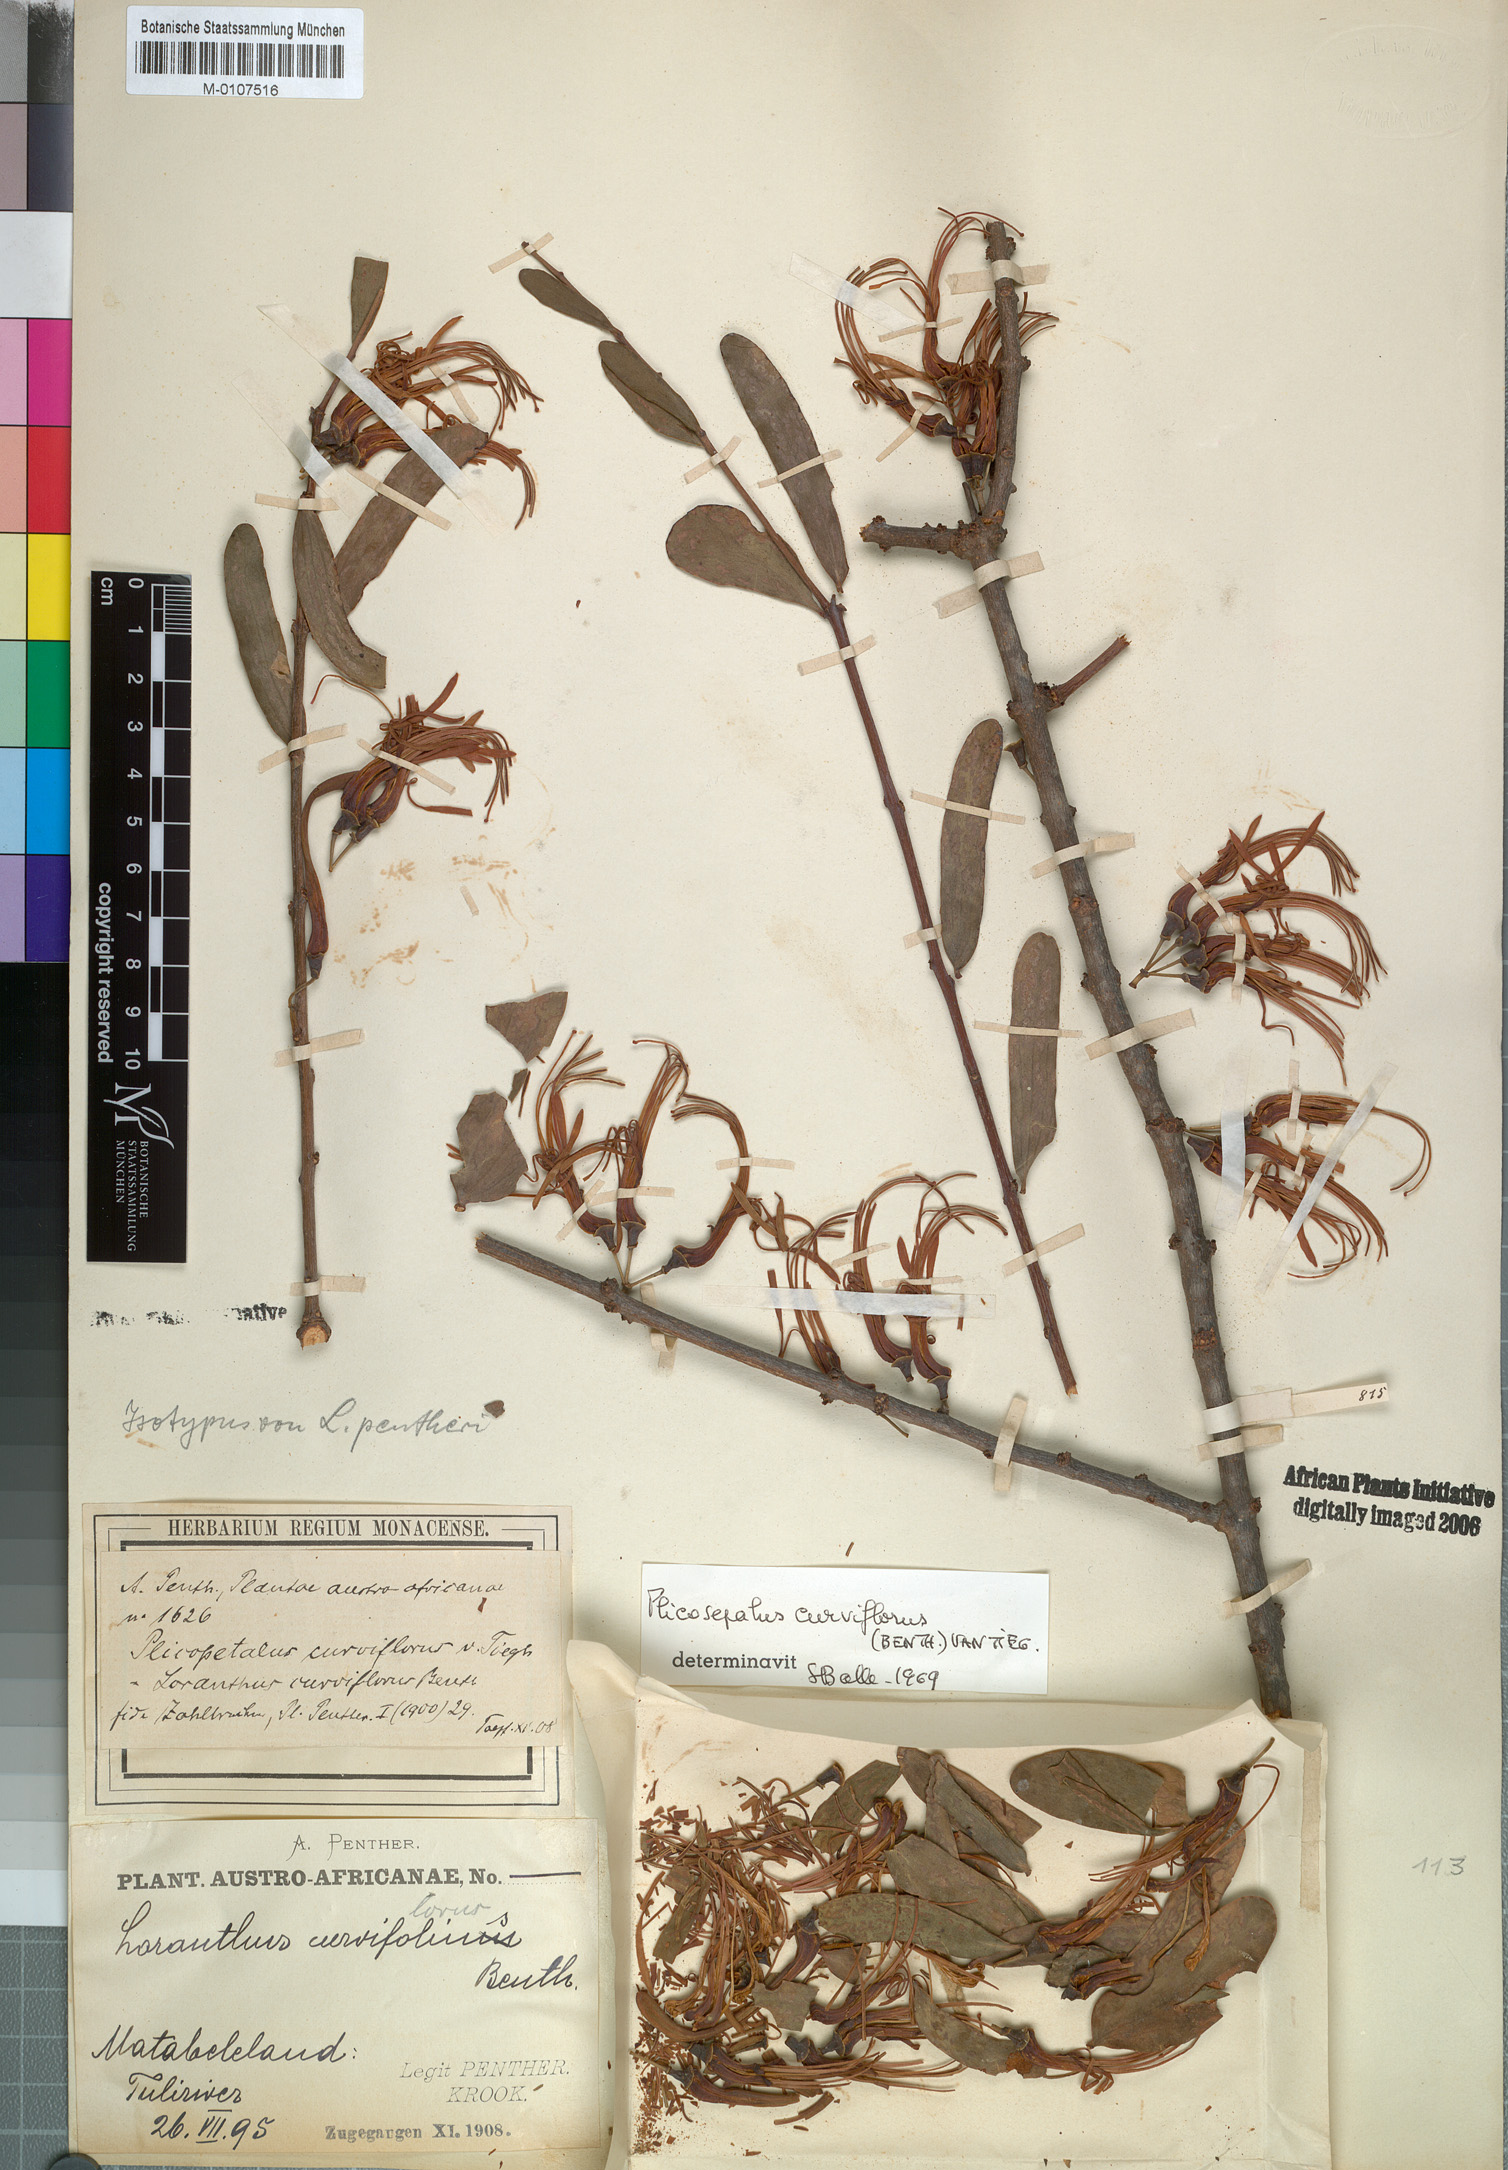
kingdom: Plantae
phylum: Tracheophyta
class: Magnoliopsida
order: Santalales
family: Loranthaceae
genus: Plicosepalus
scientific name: Plicosepalus curviflorus
